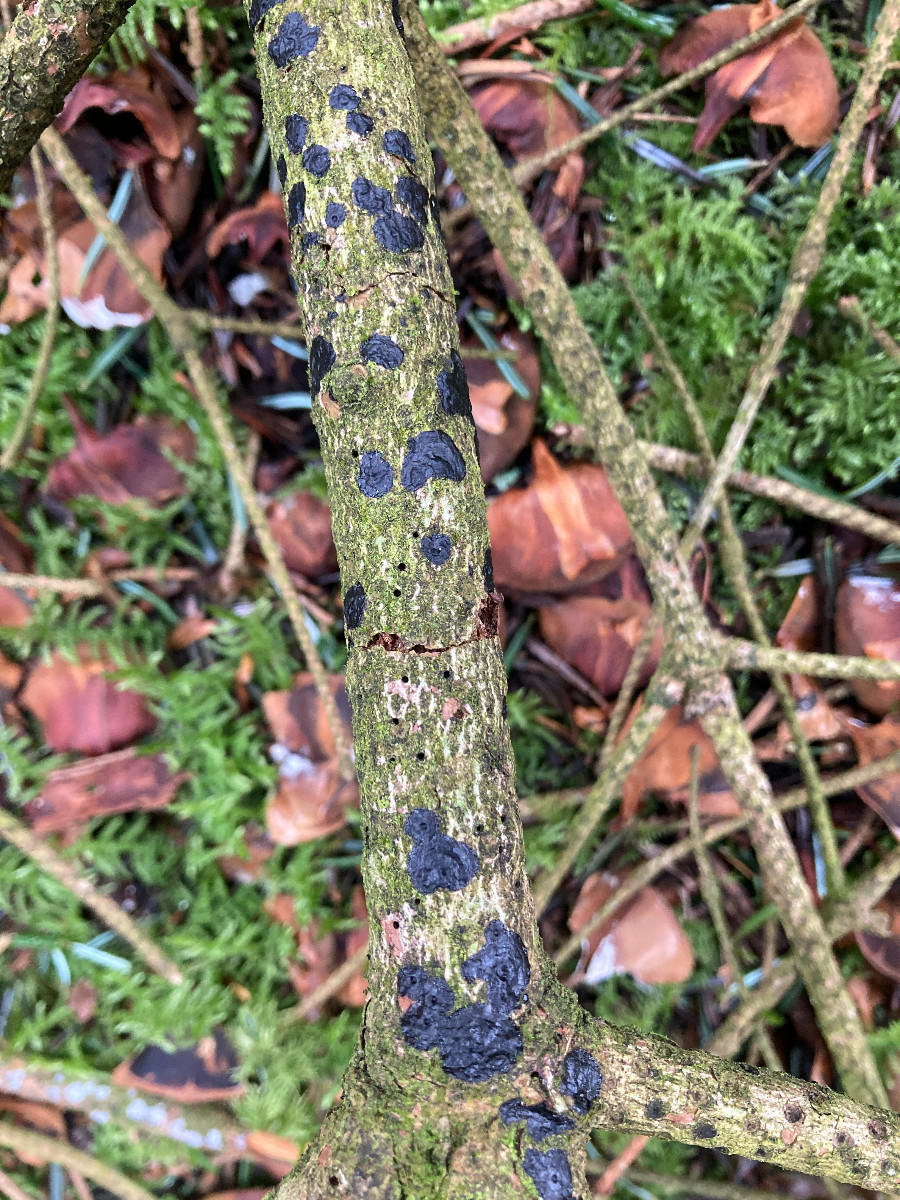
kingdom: Fungi
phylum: Basidiomycota
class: Agaricomycetes
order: Auriculariales
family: Auriculariaceae
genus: Exidia
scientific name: Exidia pithya
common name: gran-bævretop
